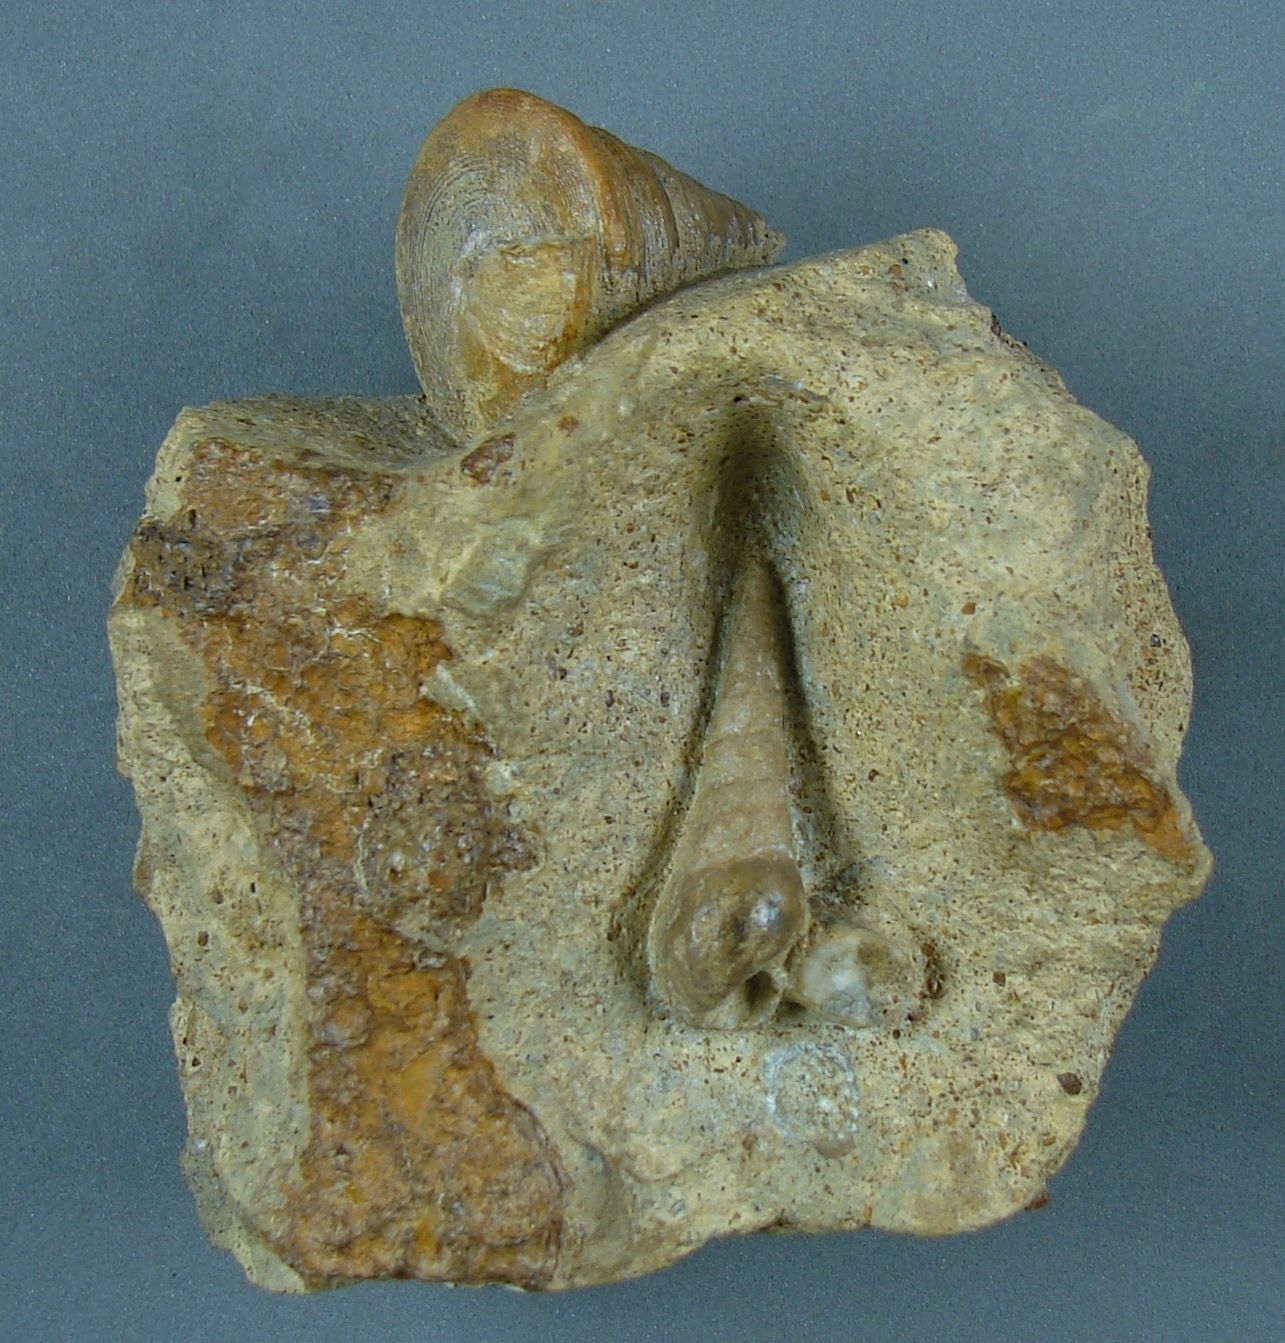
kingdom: Animalia
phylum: Mollusca
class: Gastropoda
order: Pleurotomariida
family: Pleurotomariidae
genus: Pyrgotrochus
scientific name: Pyrgotrochus elongatus
